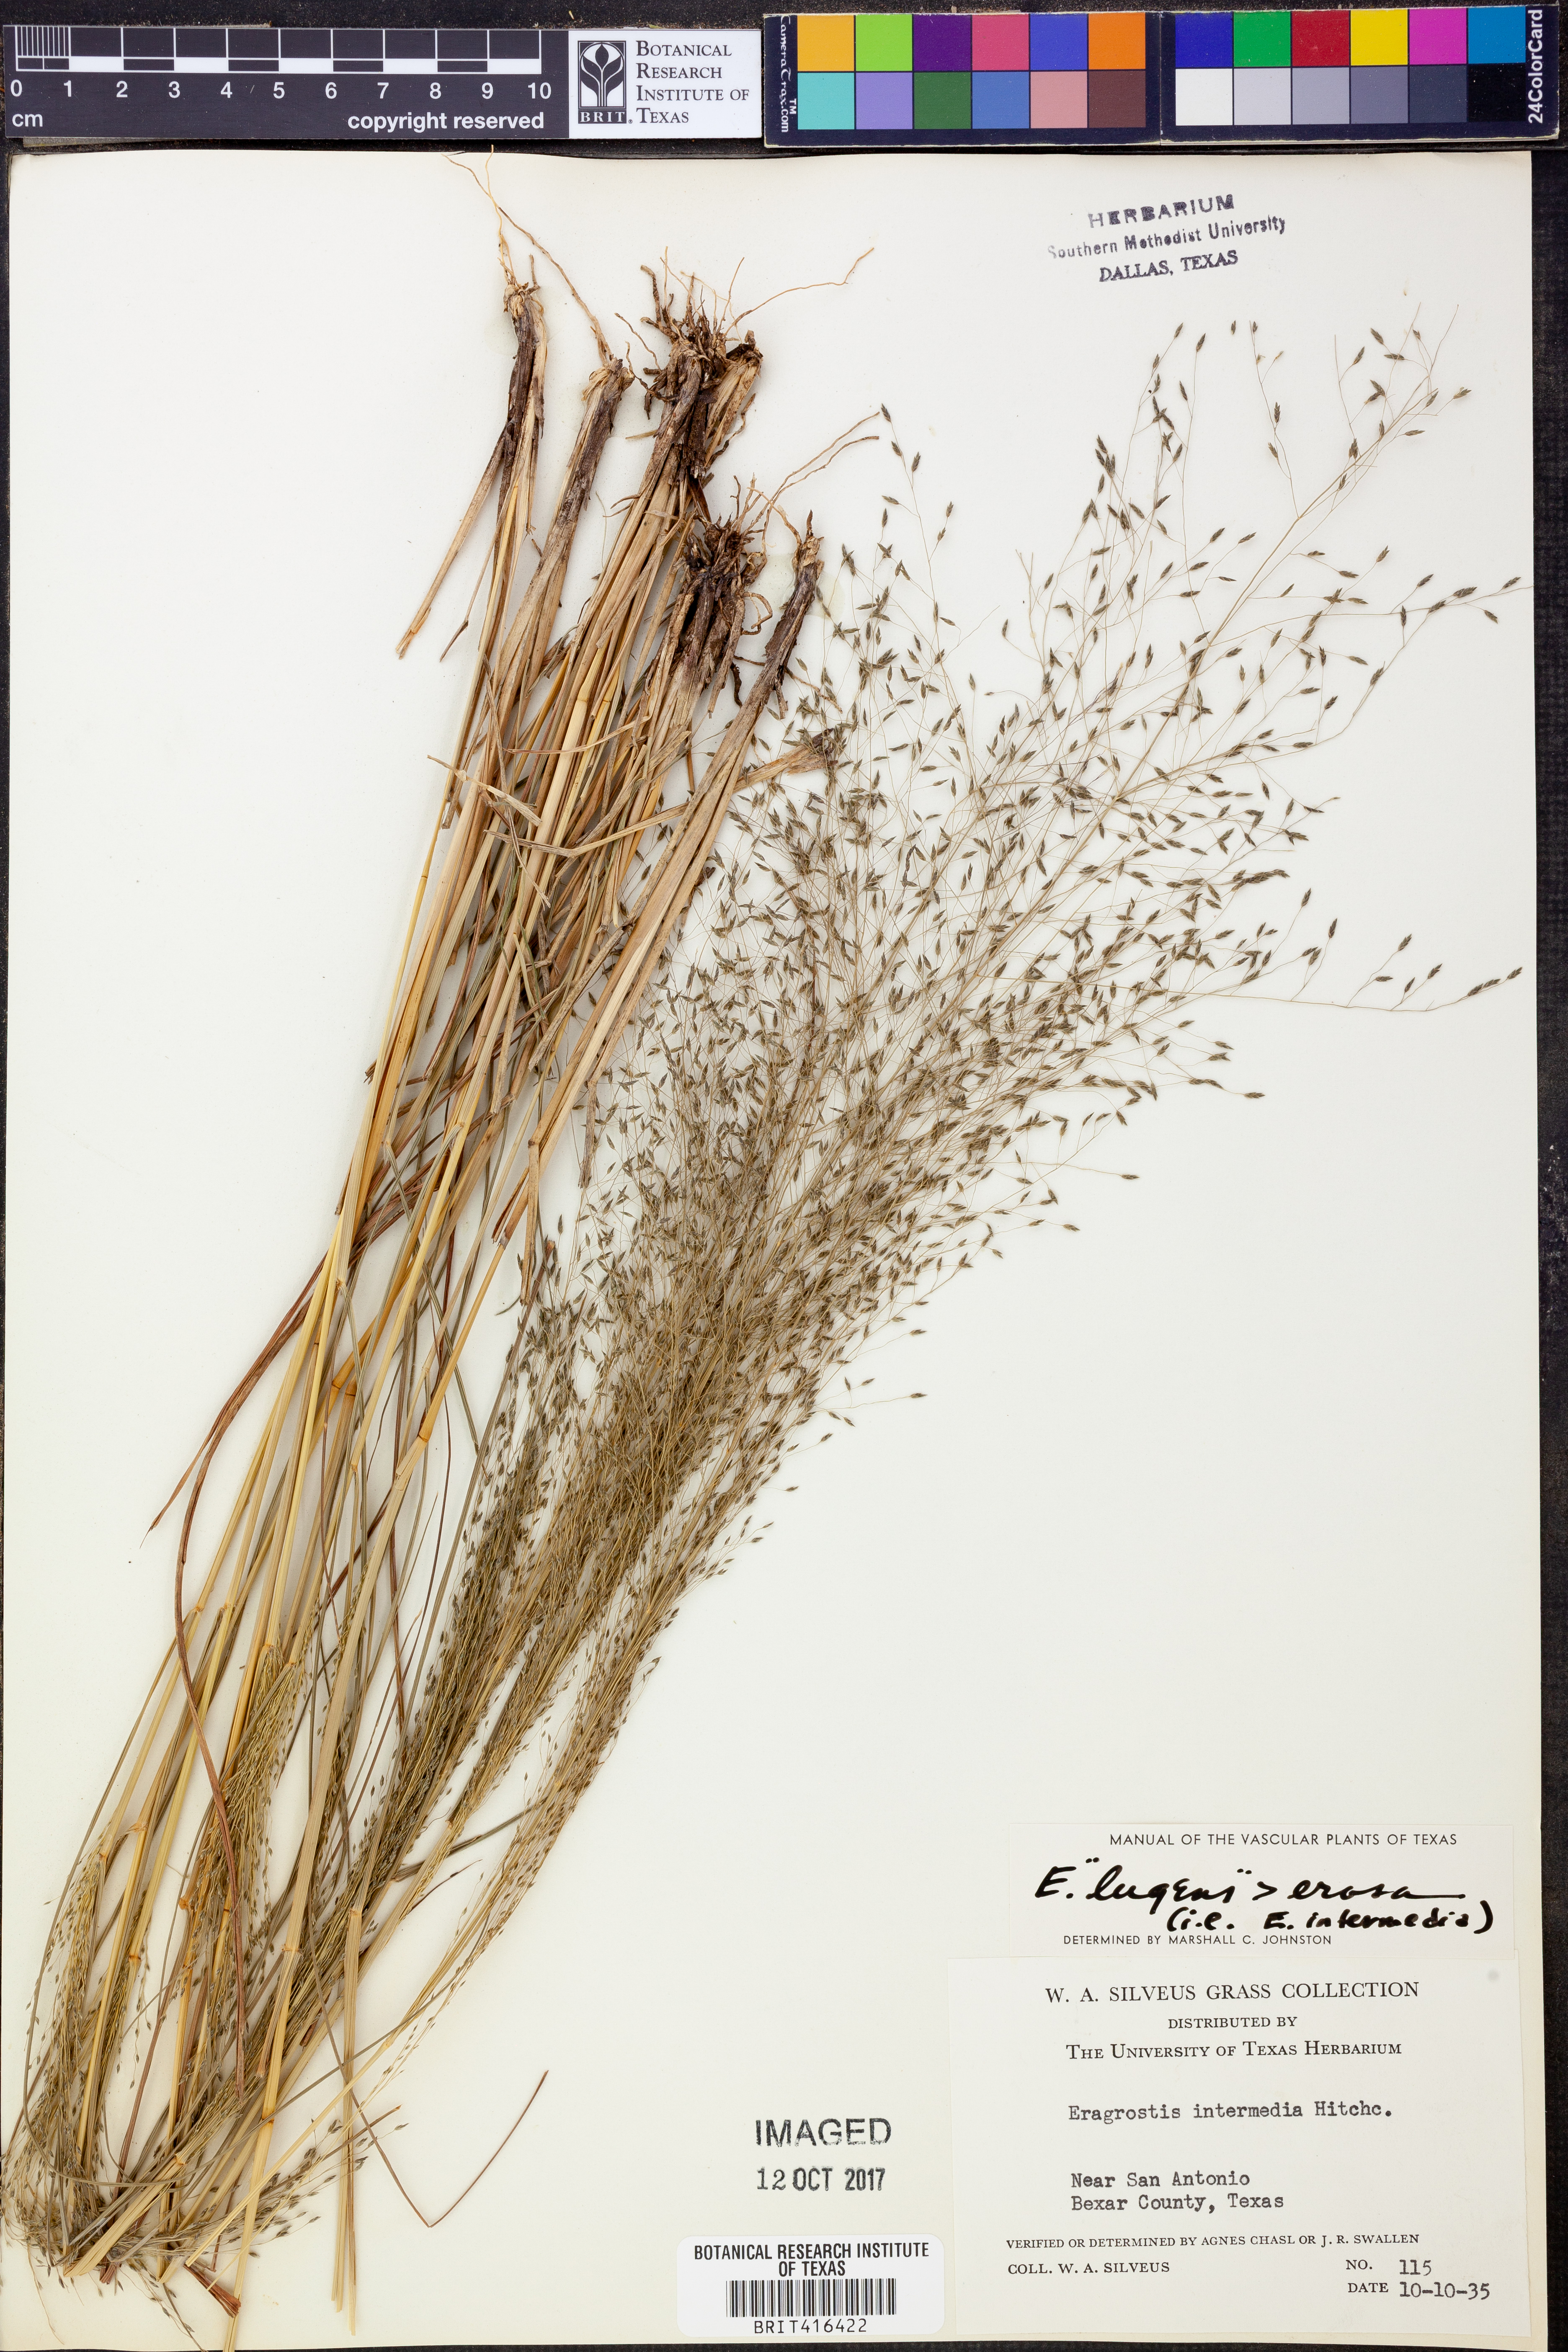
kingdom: Plantae
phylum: Tracheophyta
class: Liliopsida
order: Poales
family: Poaceae
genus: Eragrostis
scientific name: Eragrostis capillaris
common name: Hair-like lovegrass
